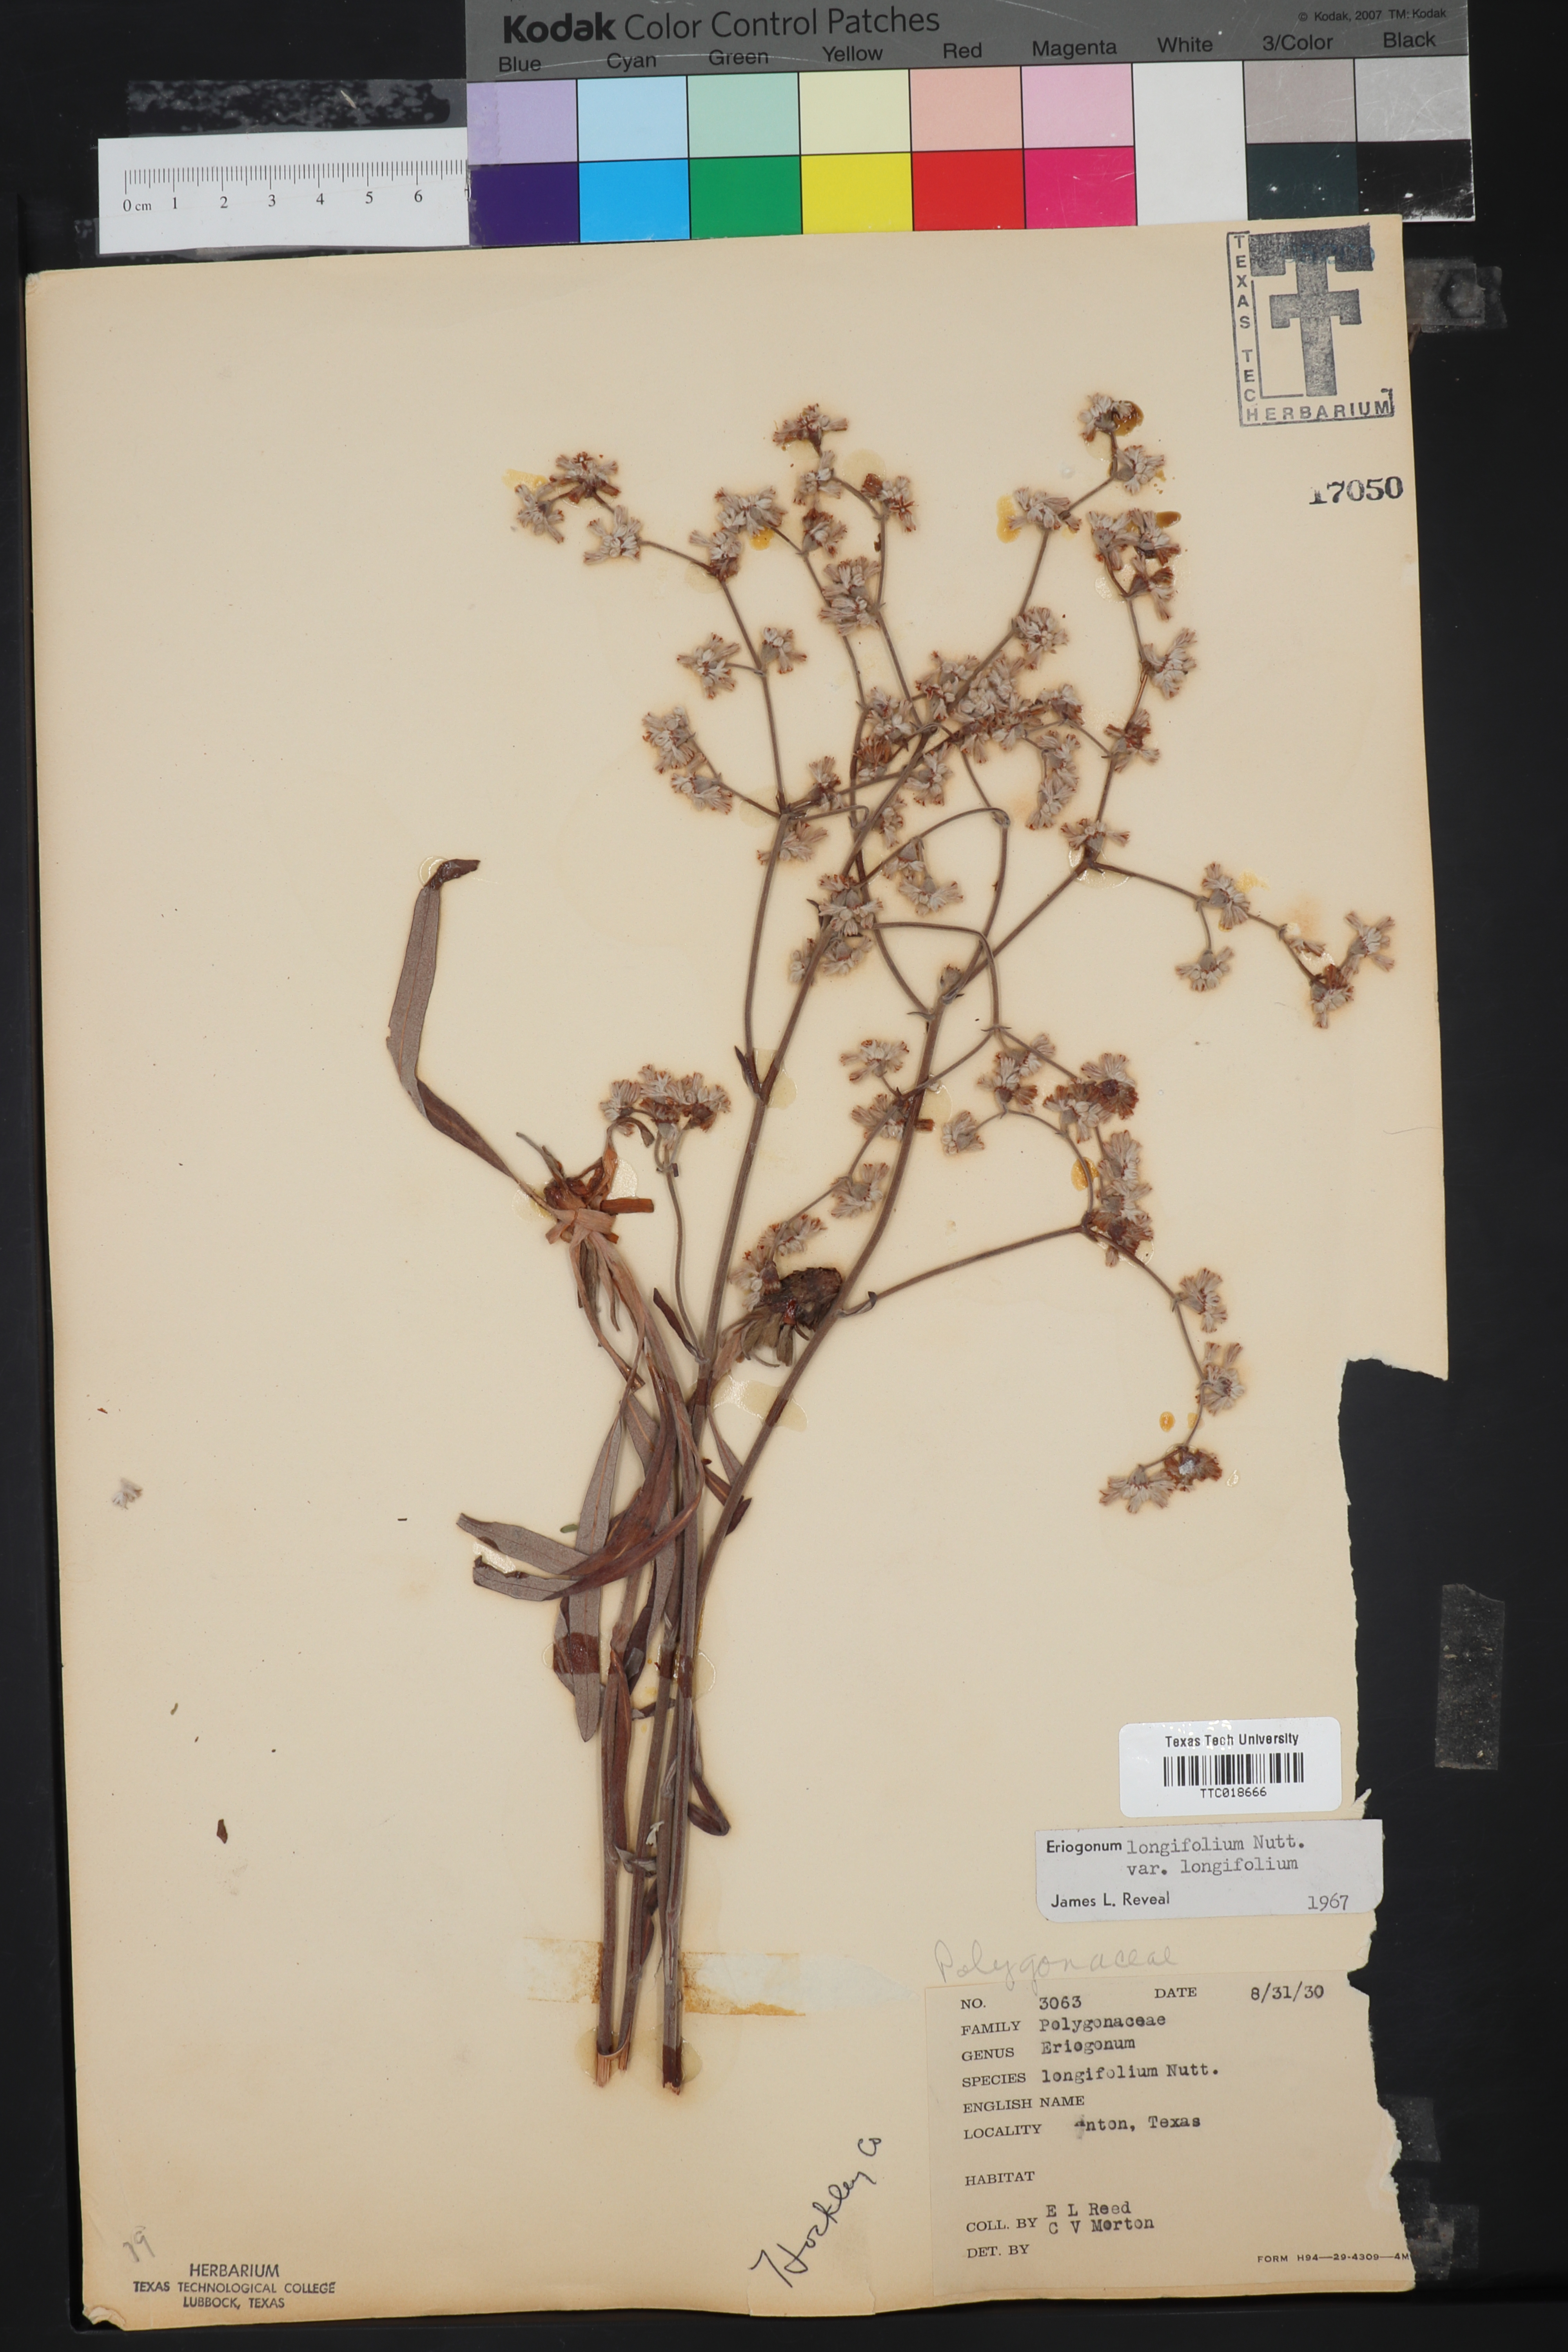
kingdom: Plantae
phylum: Tracheophyta
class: Magnoliopsida
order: Caryophyllales
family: Polygonaceae
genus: Eriogonum
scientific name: Eriogonum longifolium
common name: Longleaf wild buckwheat
